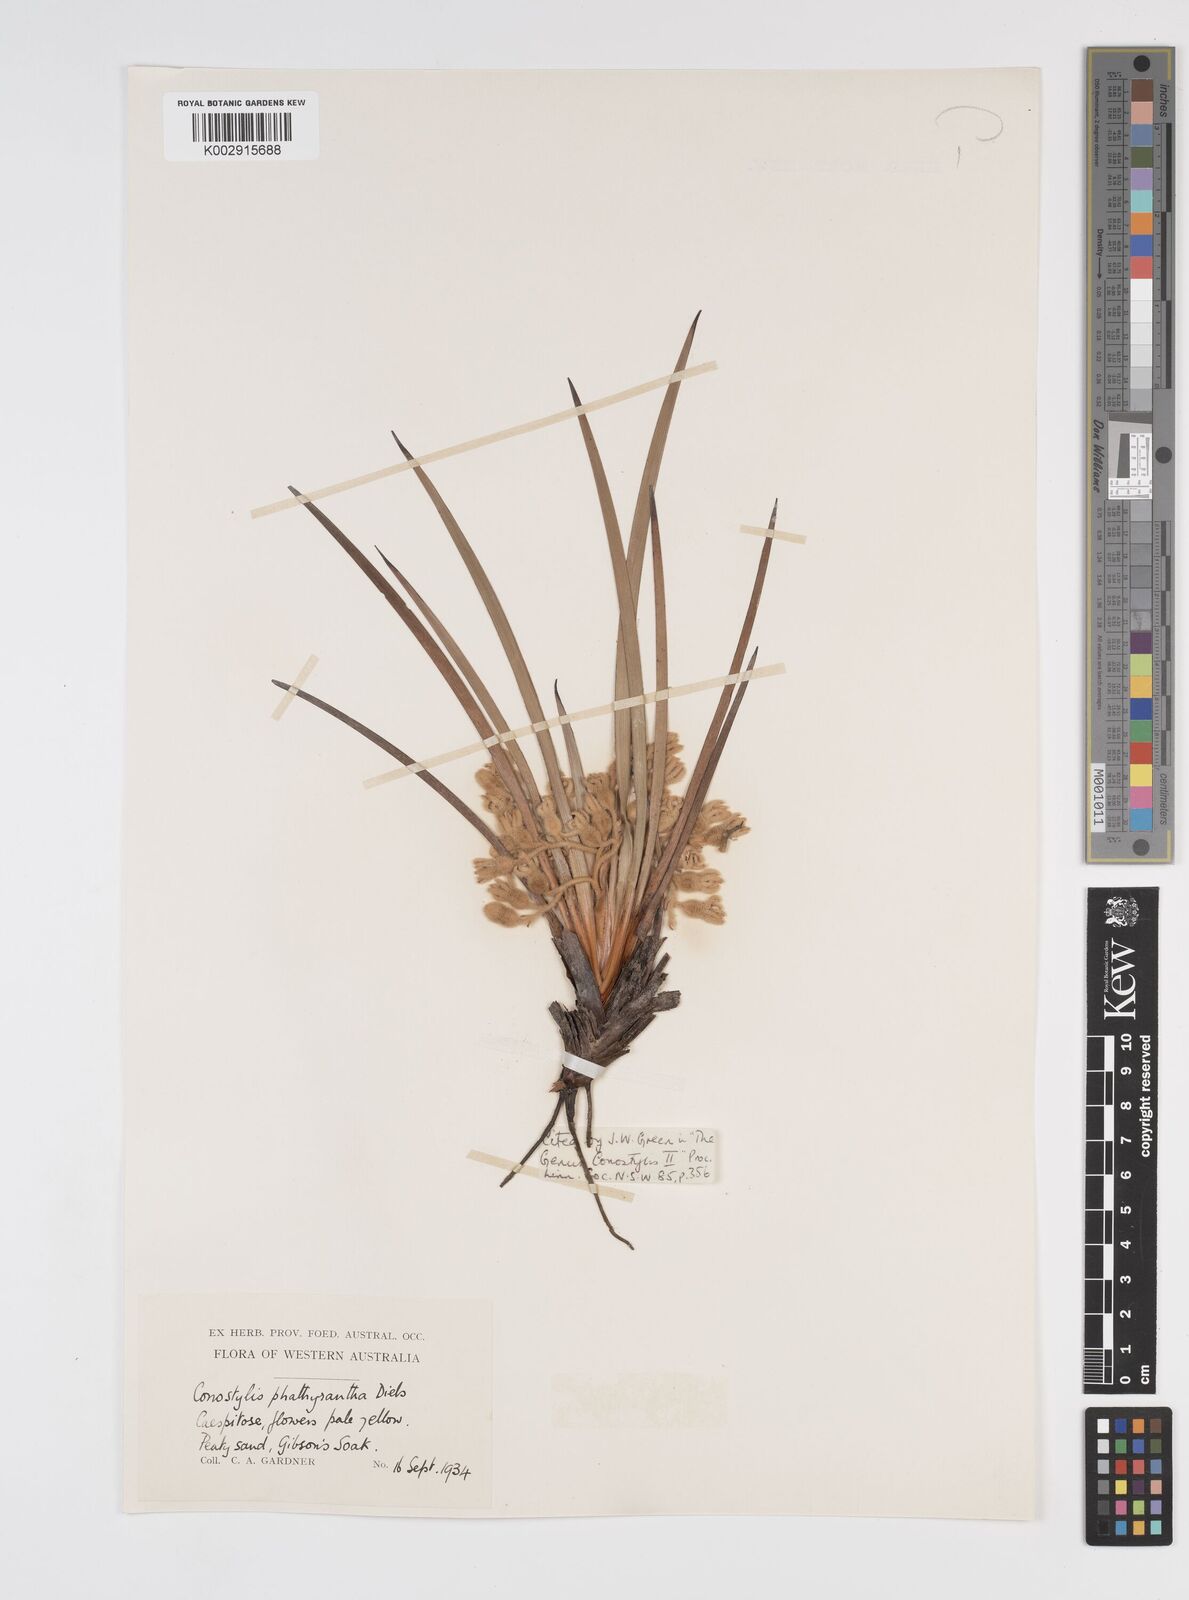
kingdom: Plantae
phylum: Tracheophyta
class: Liliopsida
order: Commelinales
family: Haemodoraceae
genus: Conostylis
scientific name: Conostylis phathyrantha
